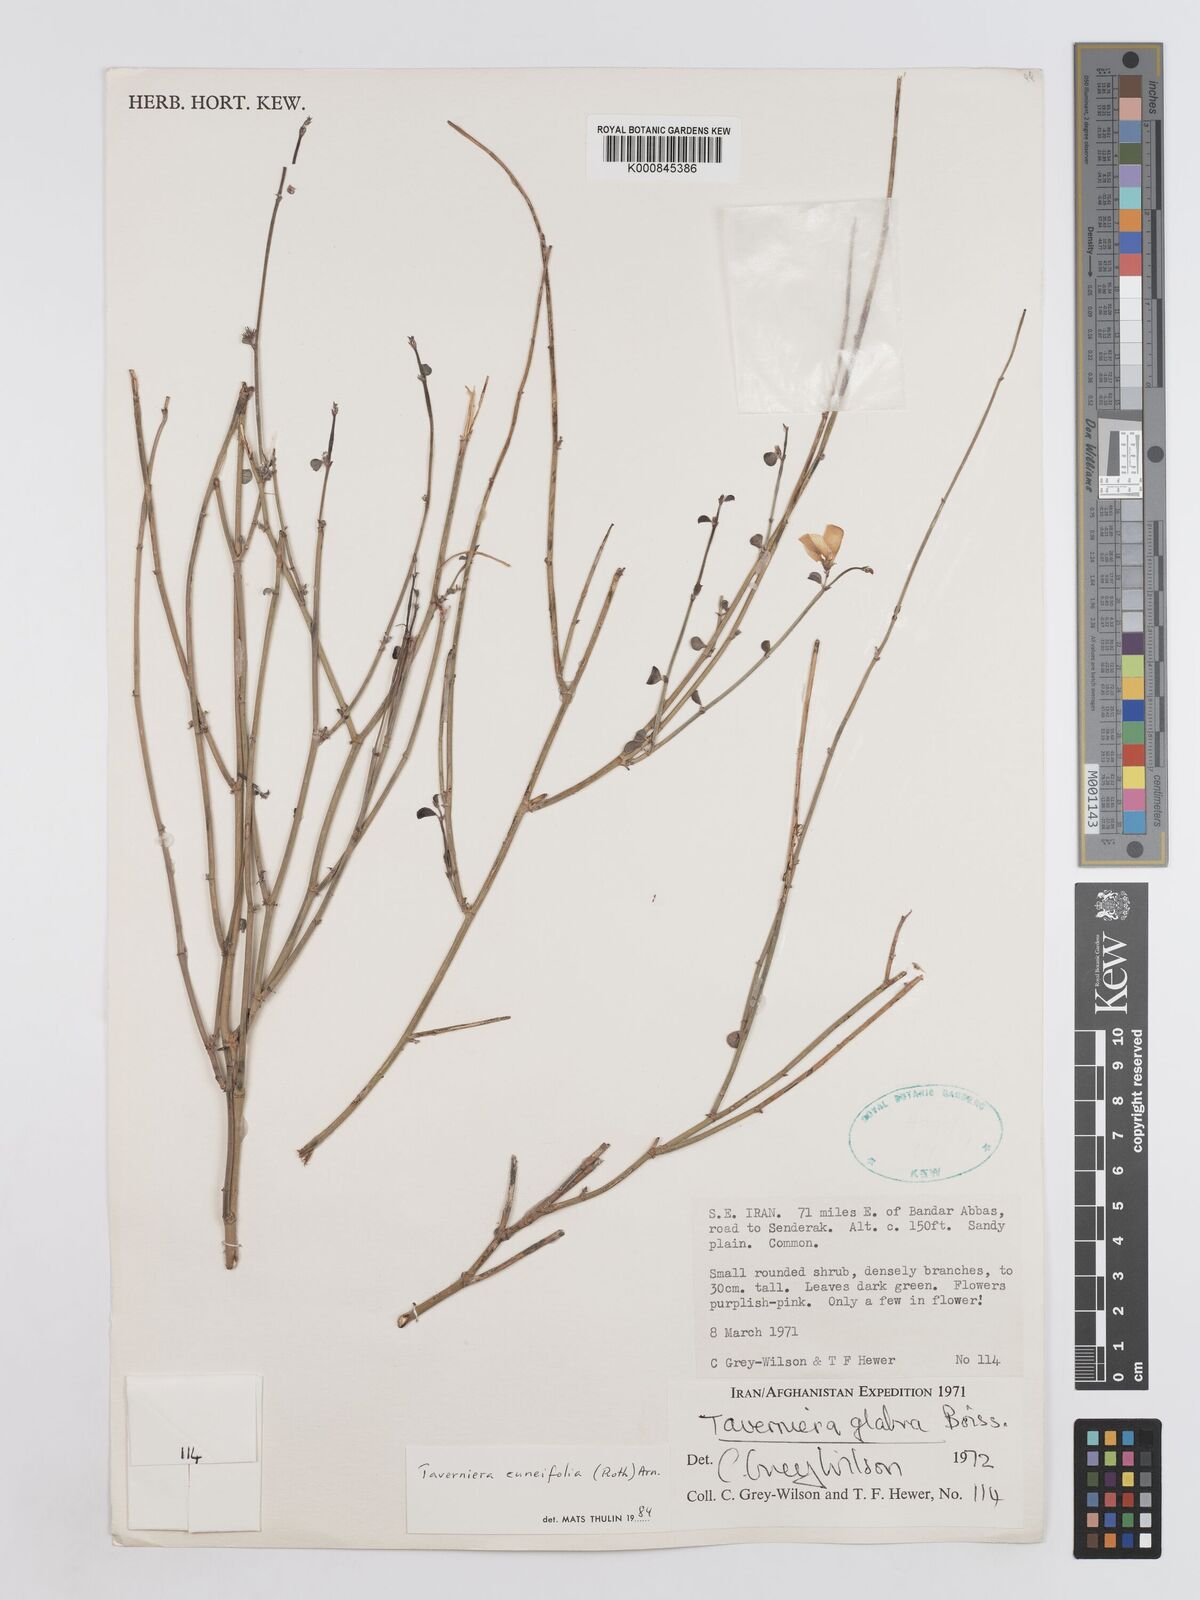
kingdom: Plantae
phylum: Tracheophyta
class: Magnoliopsida
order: Fabales
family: Fabaceae
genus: Taverniera
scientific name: Taverniera
